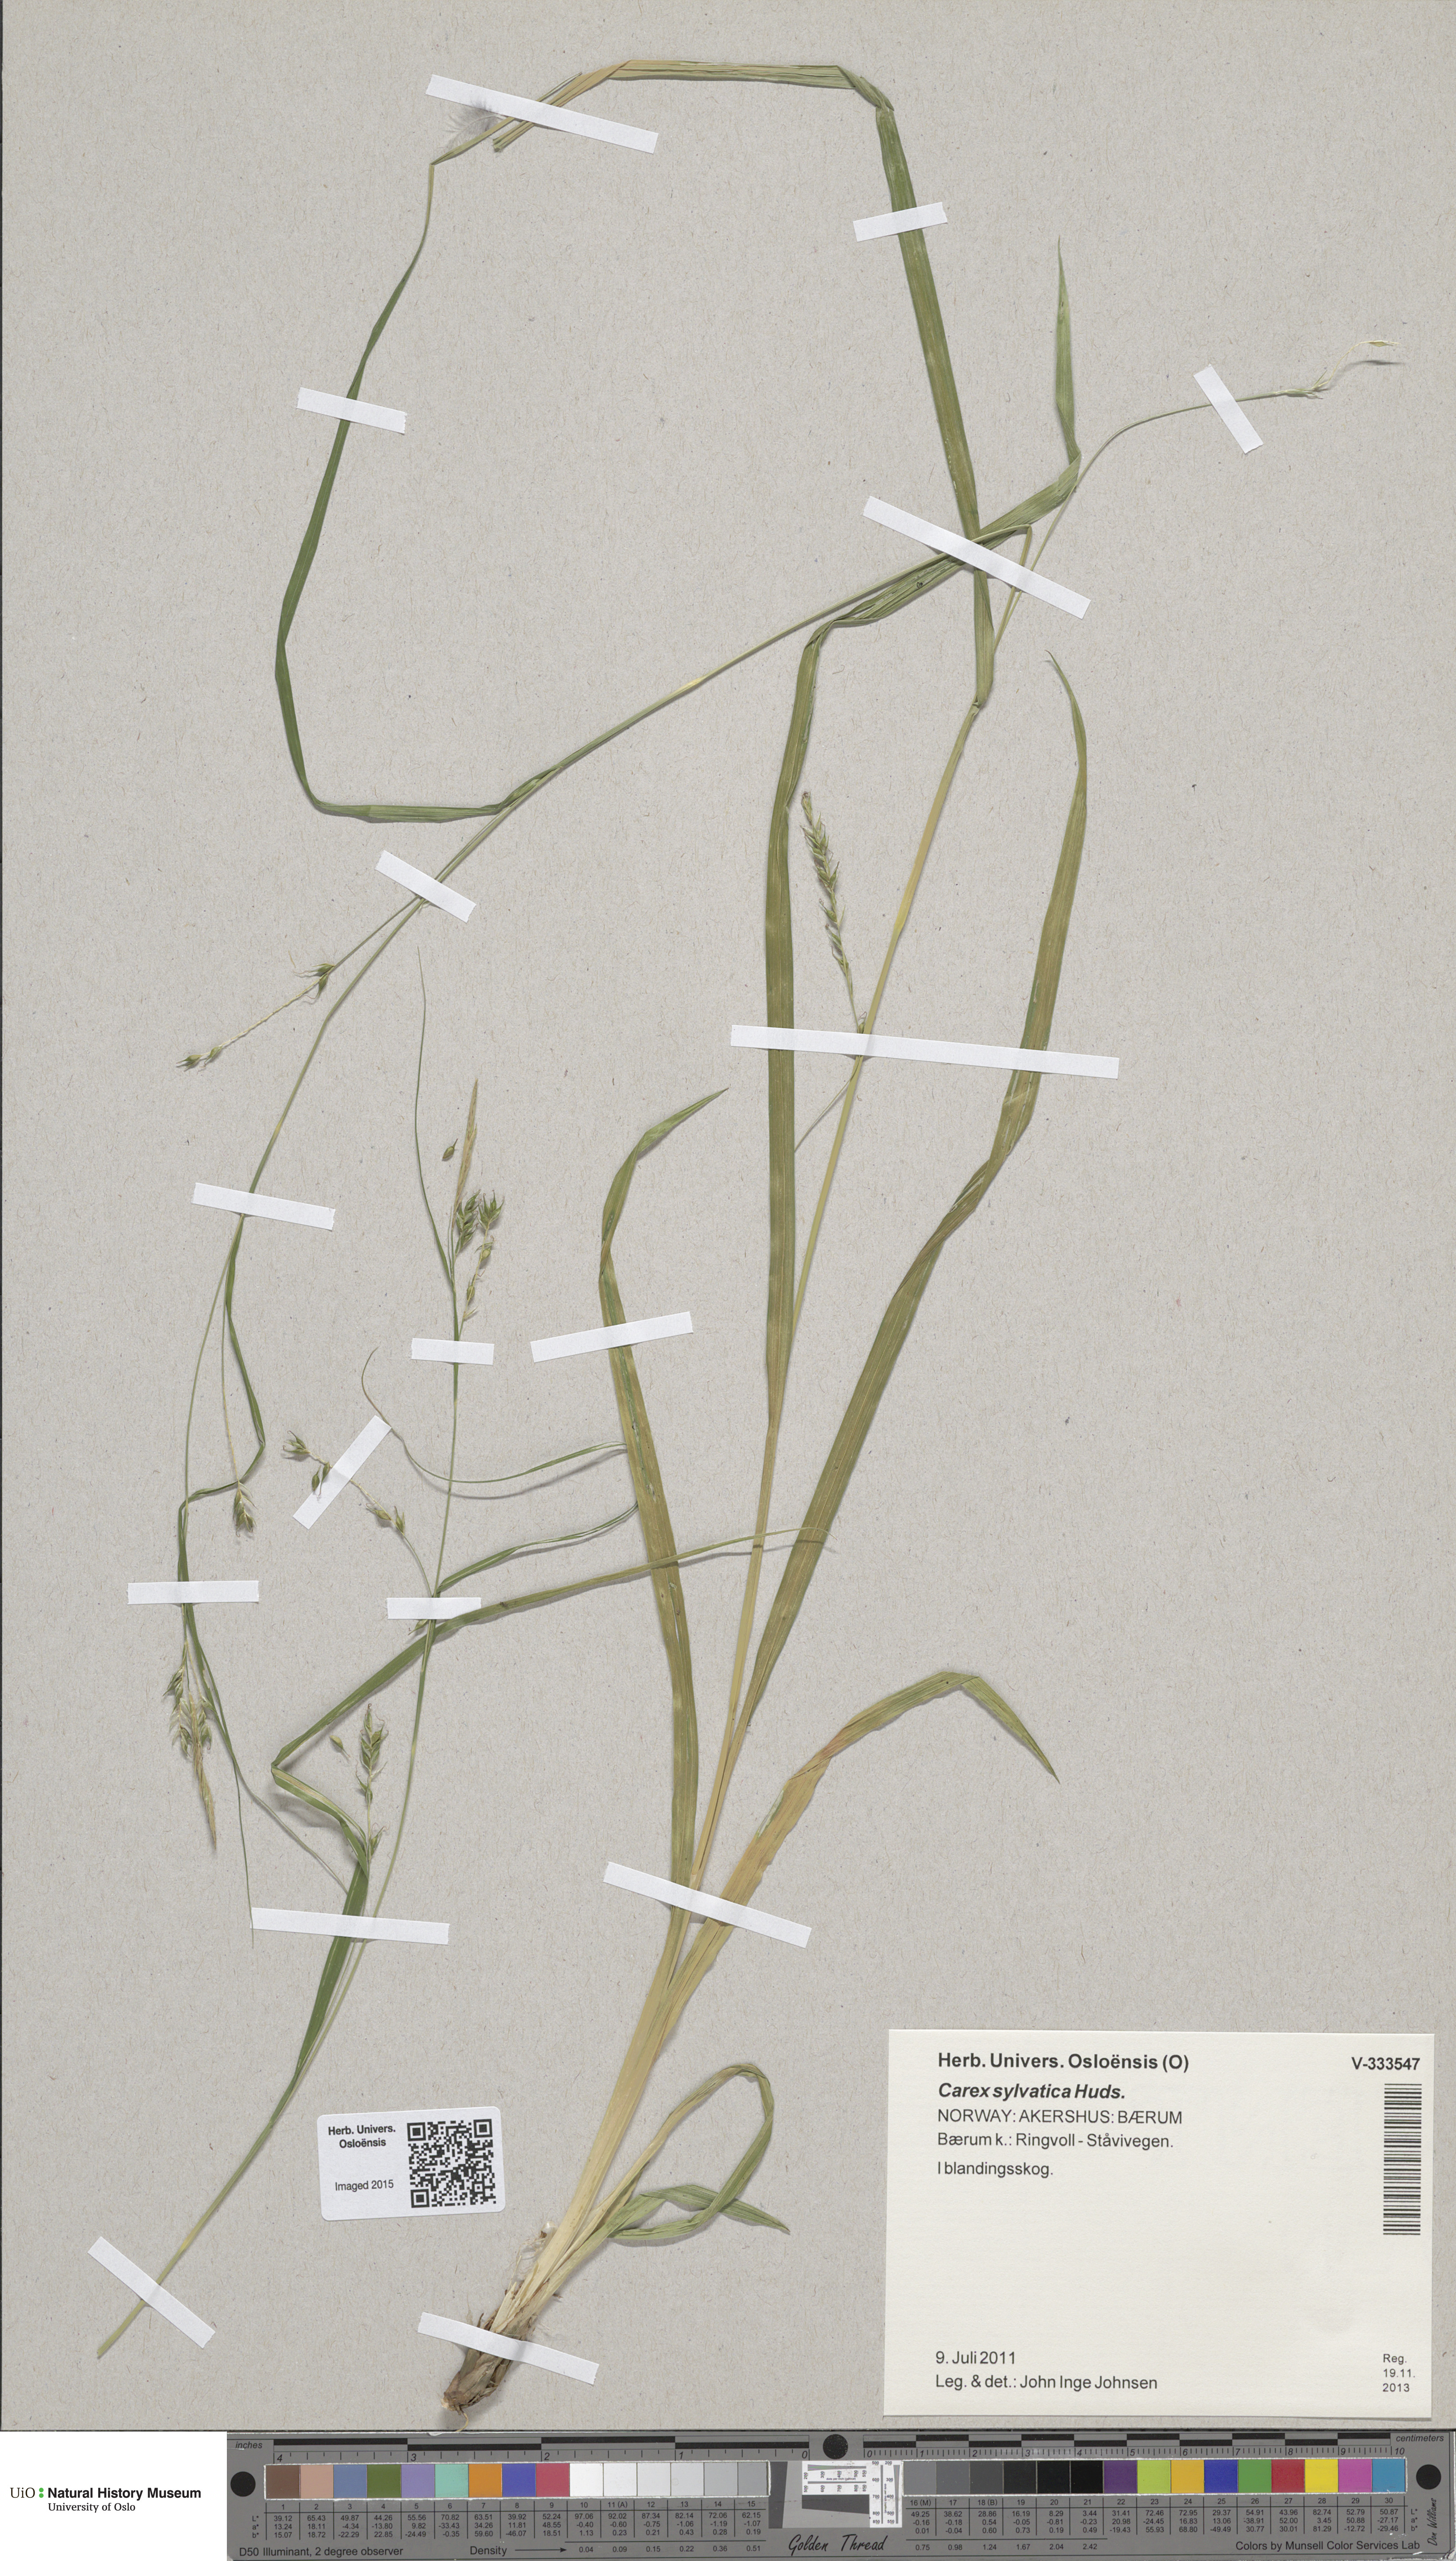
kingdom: Plantae
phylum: Tracheophyta
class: Liliopsida
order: Poales
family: Cyperaceae
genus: Carex
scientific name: Carex sylvatica
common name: Wood-sedge
